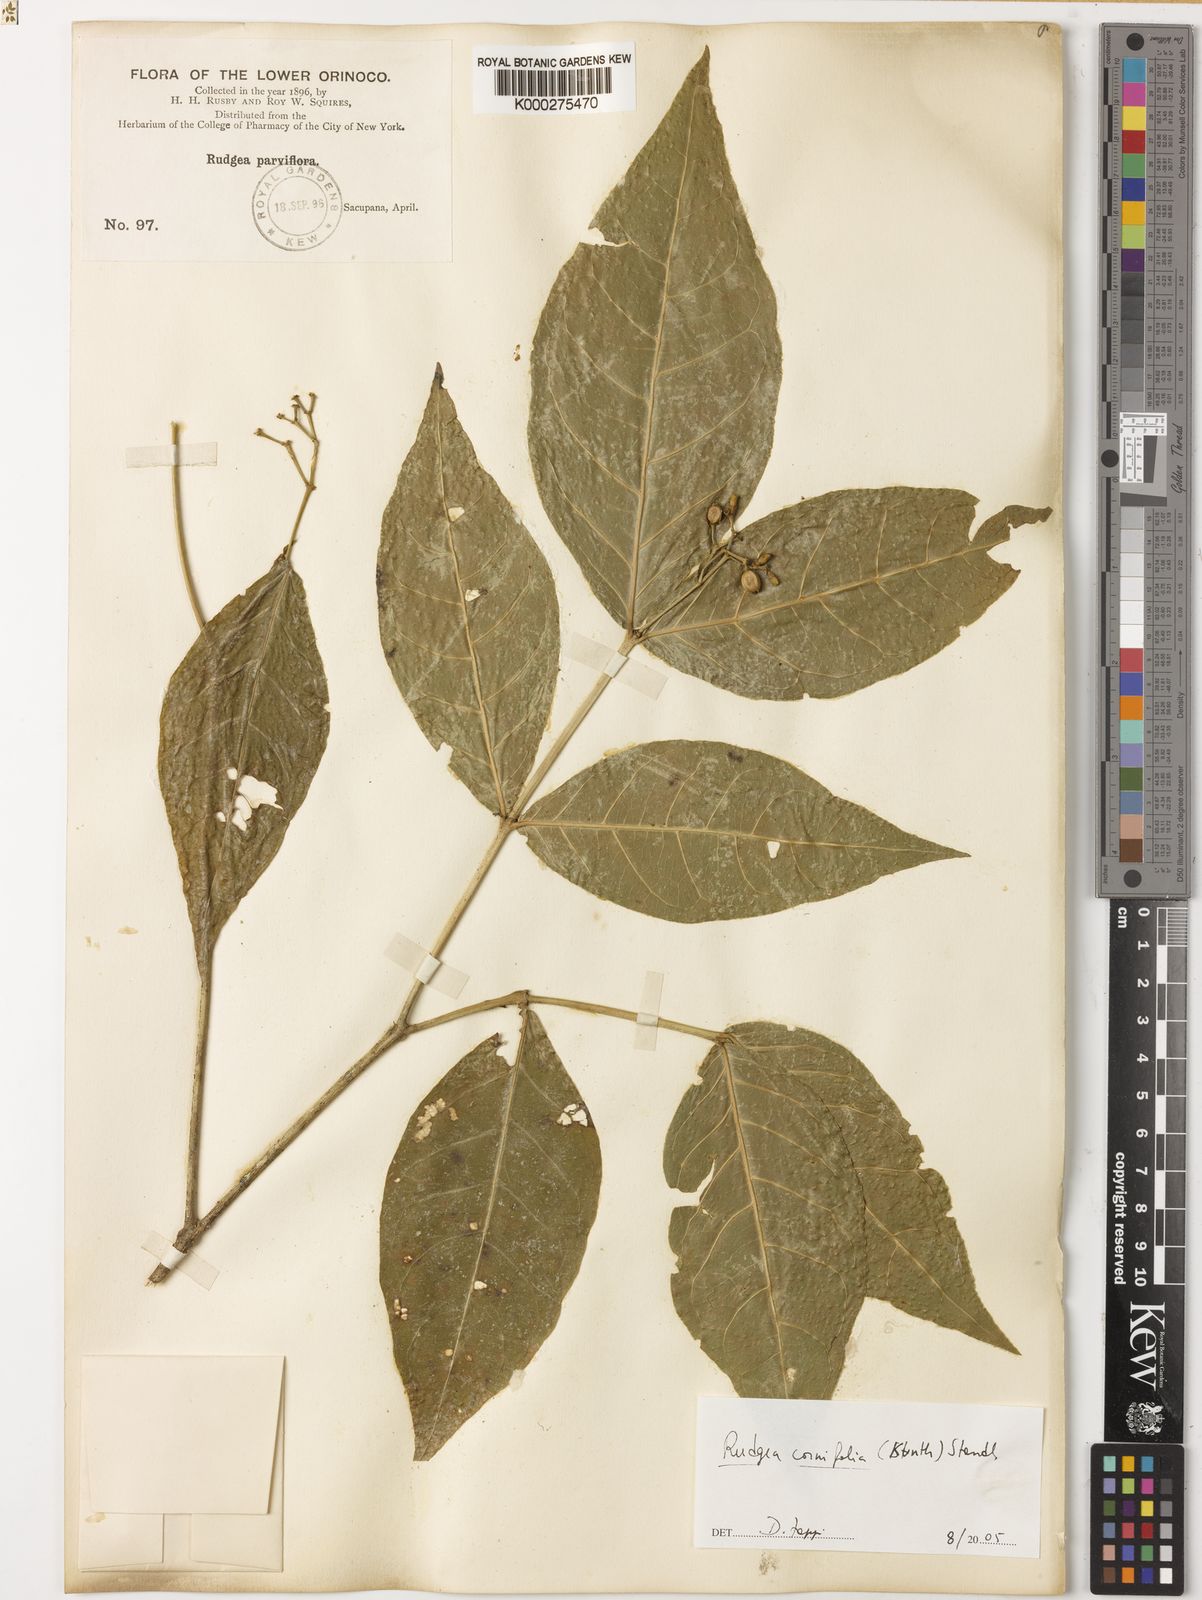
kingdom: Plantae
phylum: Tracheophyta
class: Magnoliopsida
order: Gentianales
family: Rubiaceae
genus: Rudgea
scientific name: Rudgea cornifolia
